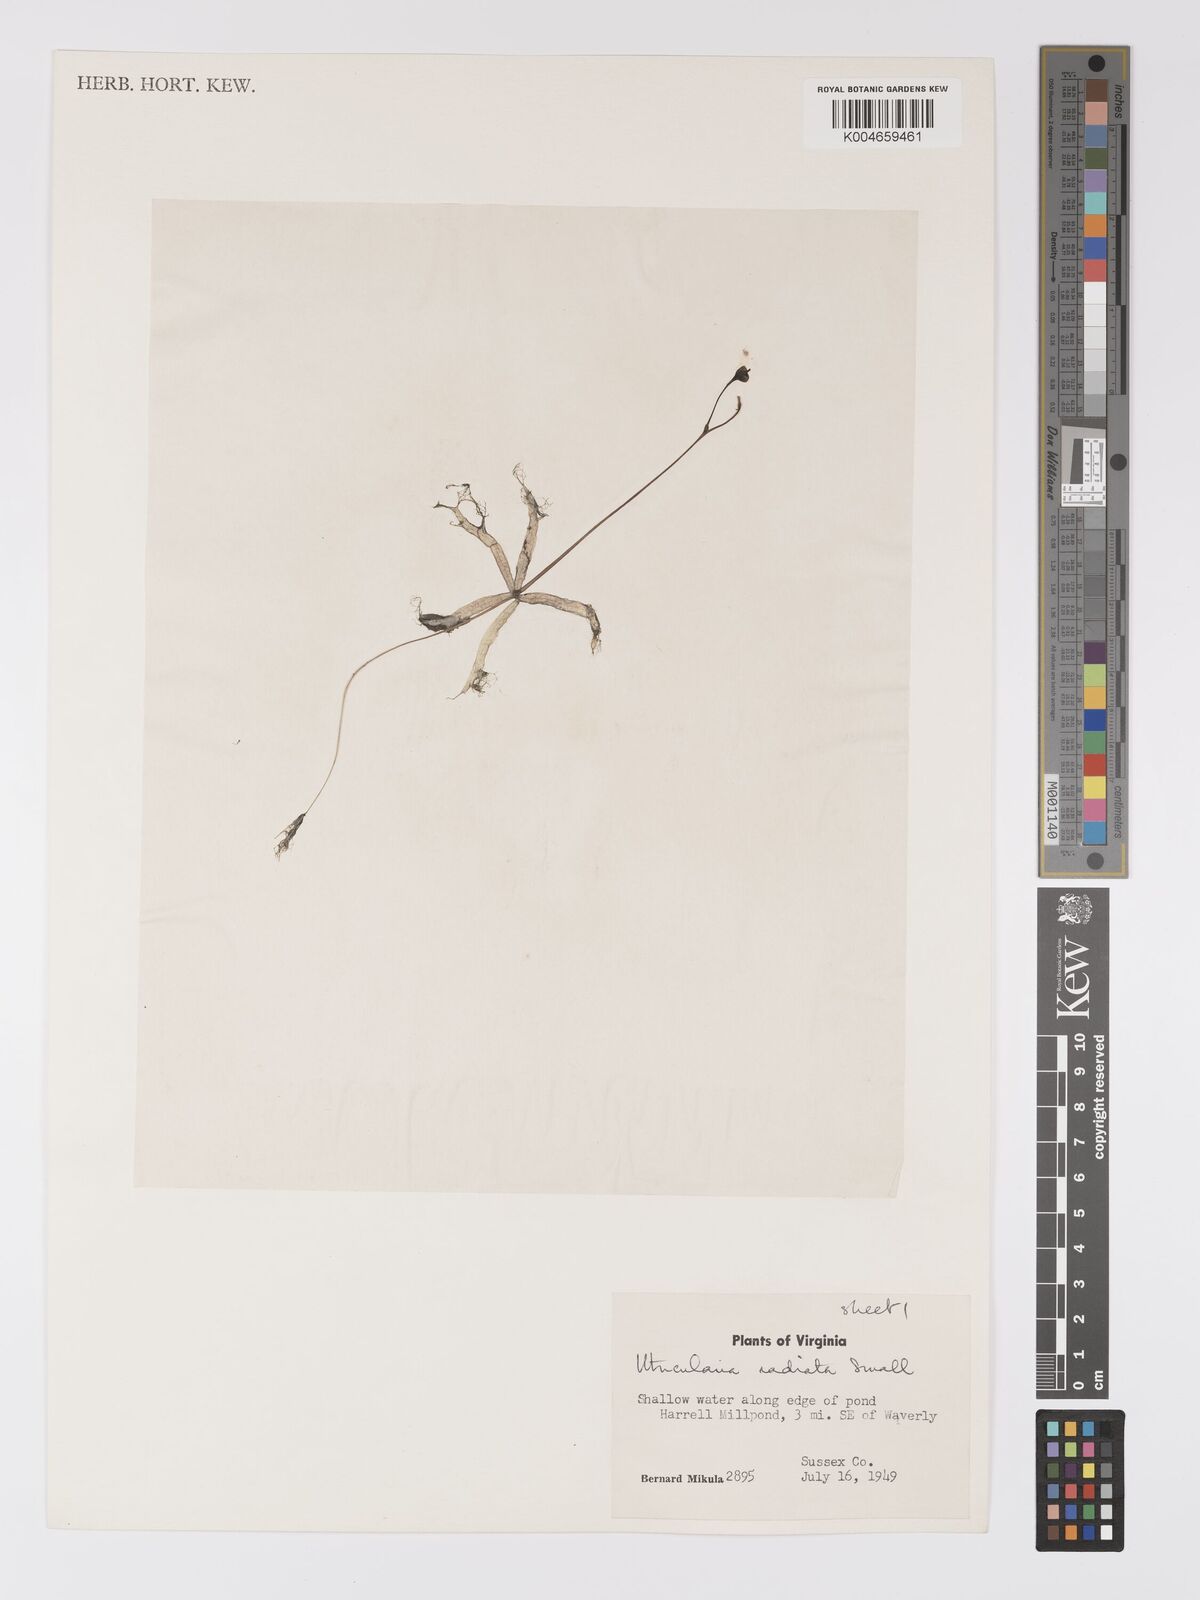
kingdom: Plantae
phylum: Tracheophyta
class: Magnoliopsida
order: Lamiales
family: Lentibulariaceae
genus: Utricularia
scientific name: Utricularia radiata
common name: Floating bladderwort
